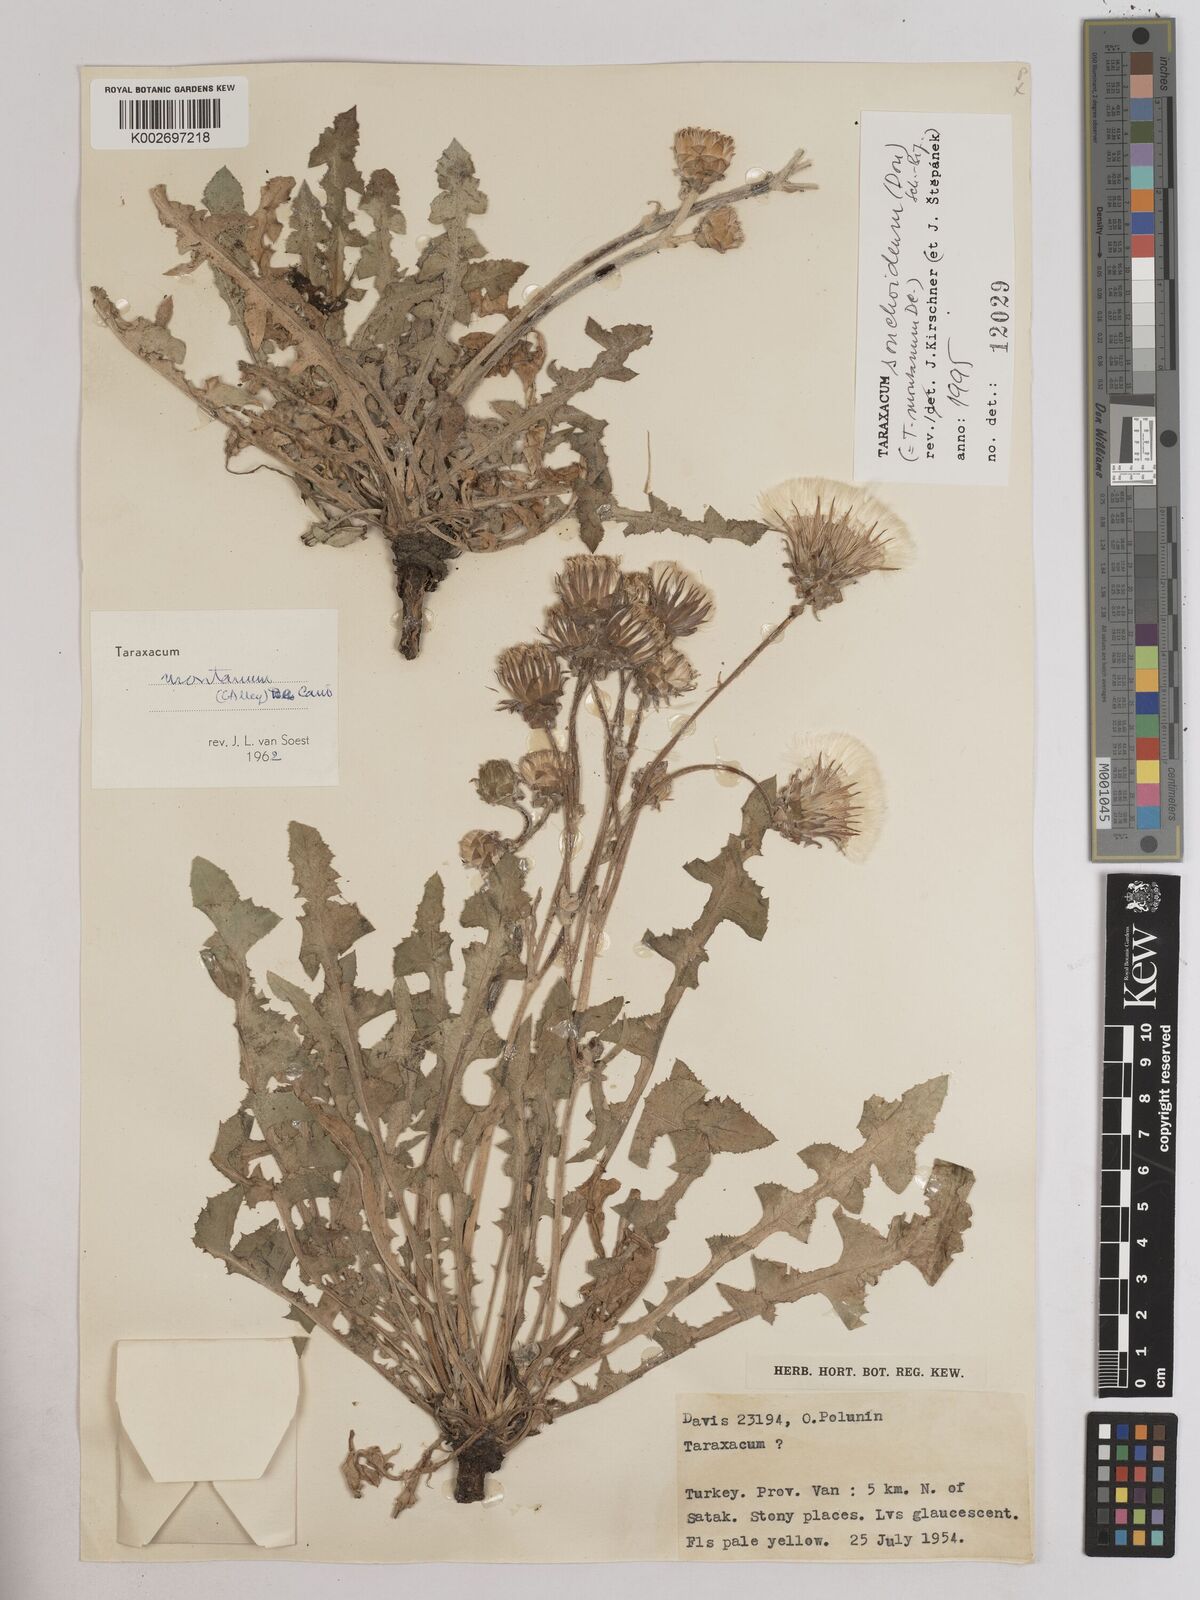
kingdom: Plantae
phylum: Tracheophyta
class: Magnoliopsida
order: Asterales
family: Asteraceae
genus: Taraxacum
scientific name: Taraxacum sonchoides
